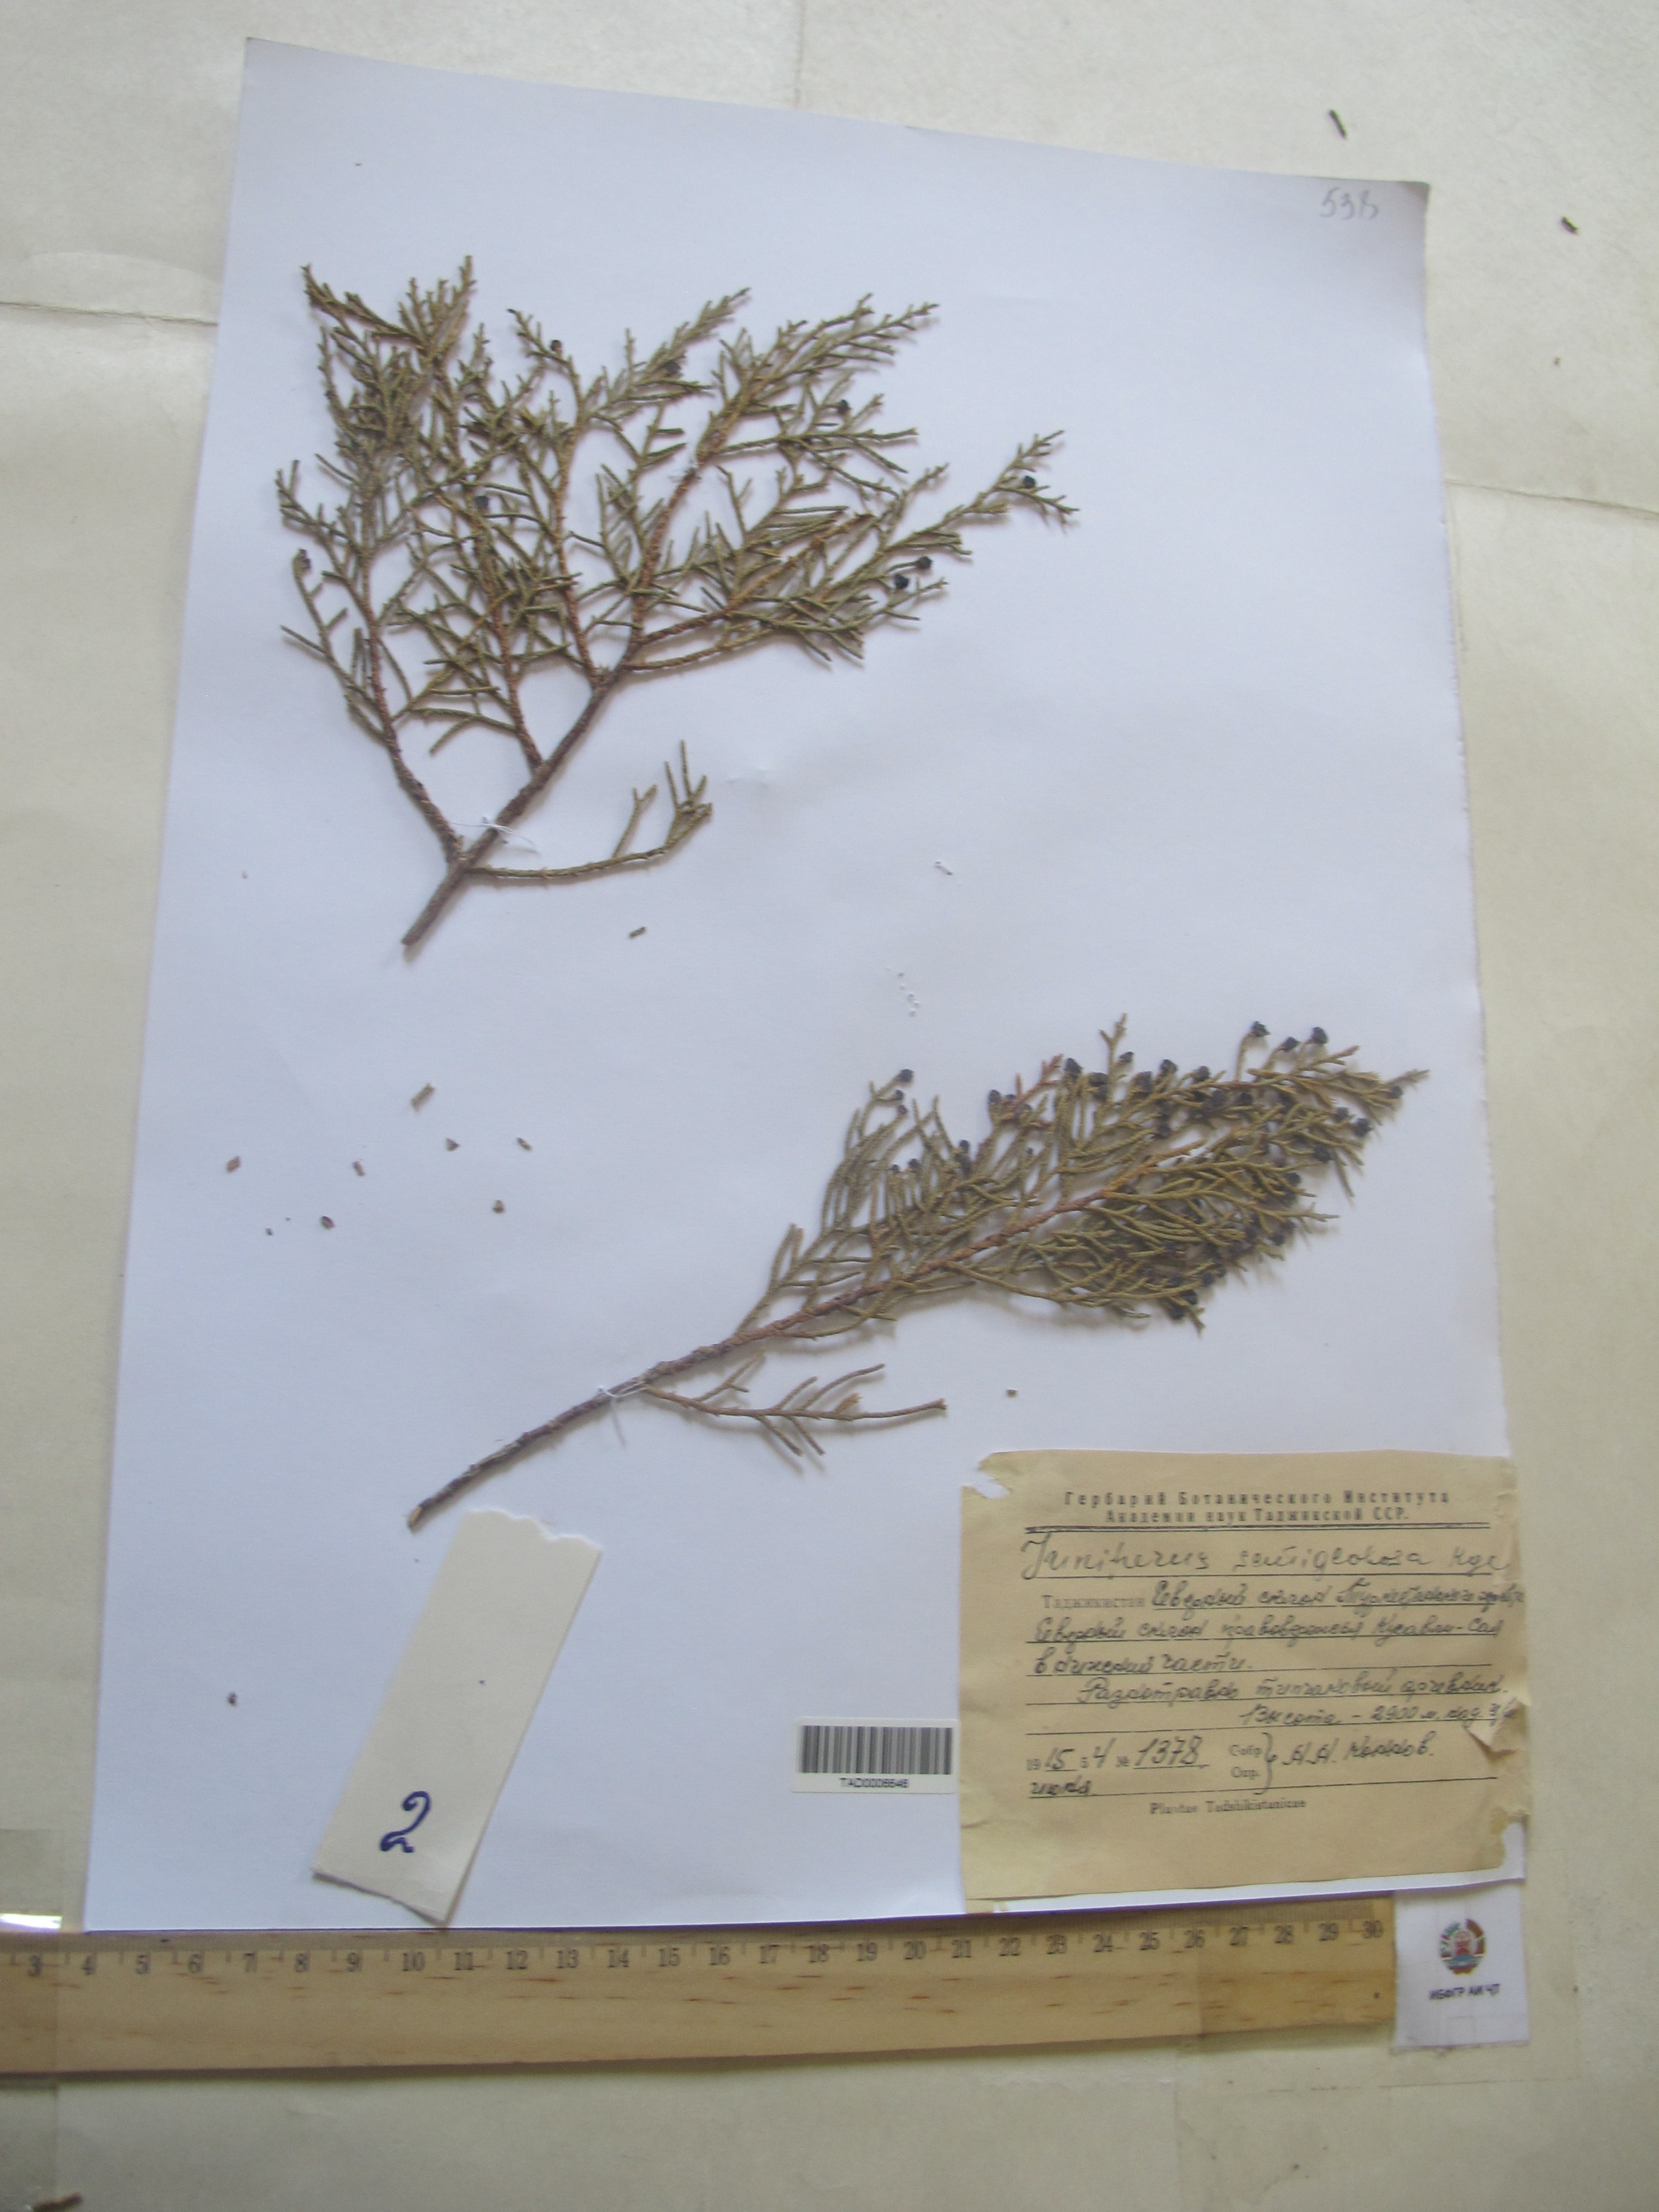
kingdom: Plantae
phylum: Tracheophyta
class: Pinopsida
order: Pinales
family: Cupressaceae
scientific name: Cupressaceae
